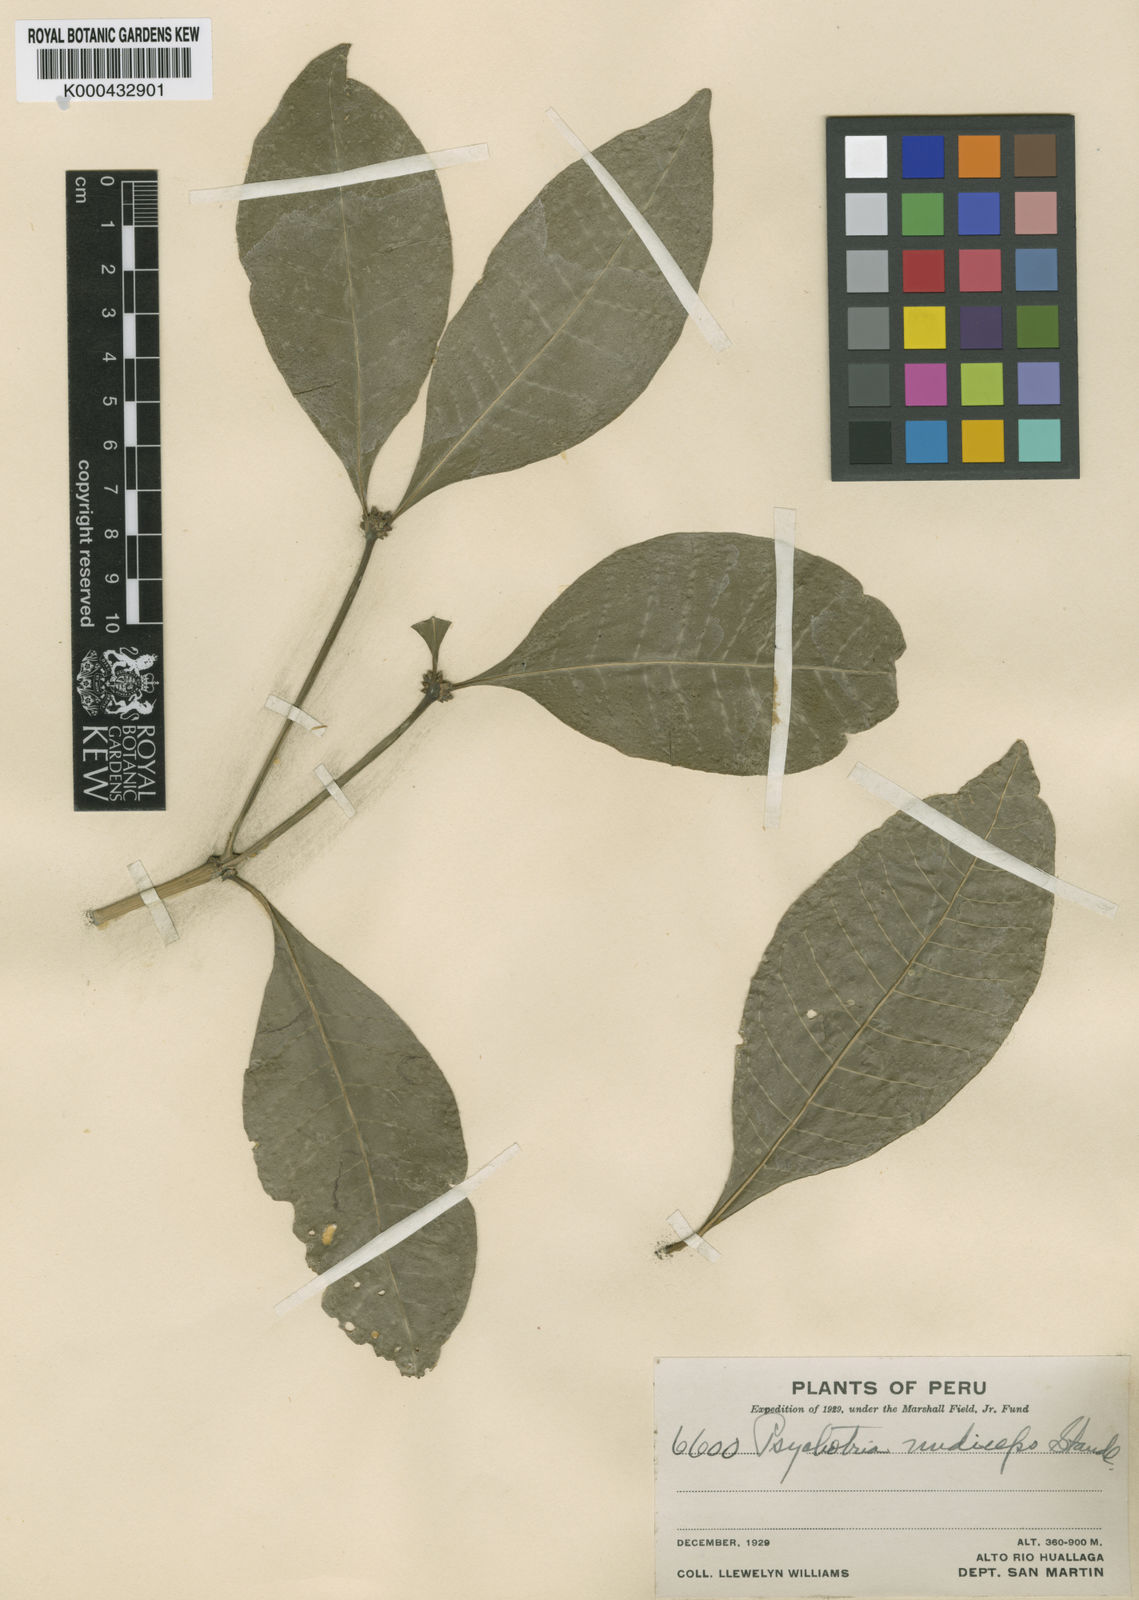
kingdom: Plantae
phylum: Tracheophyta
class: Magnoliopsida
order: Gentianales
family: Rubiaceae
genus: Eumachia
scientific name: Eumachia nana
